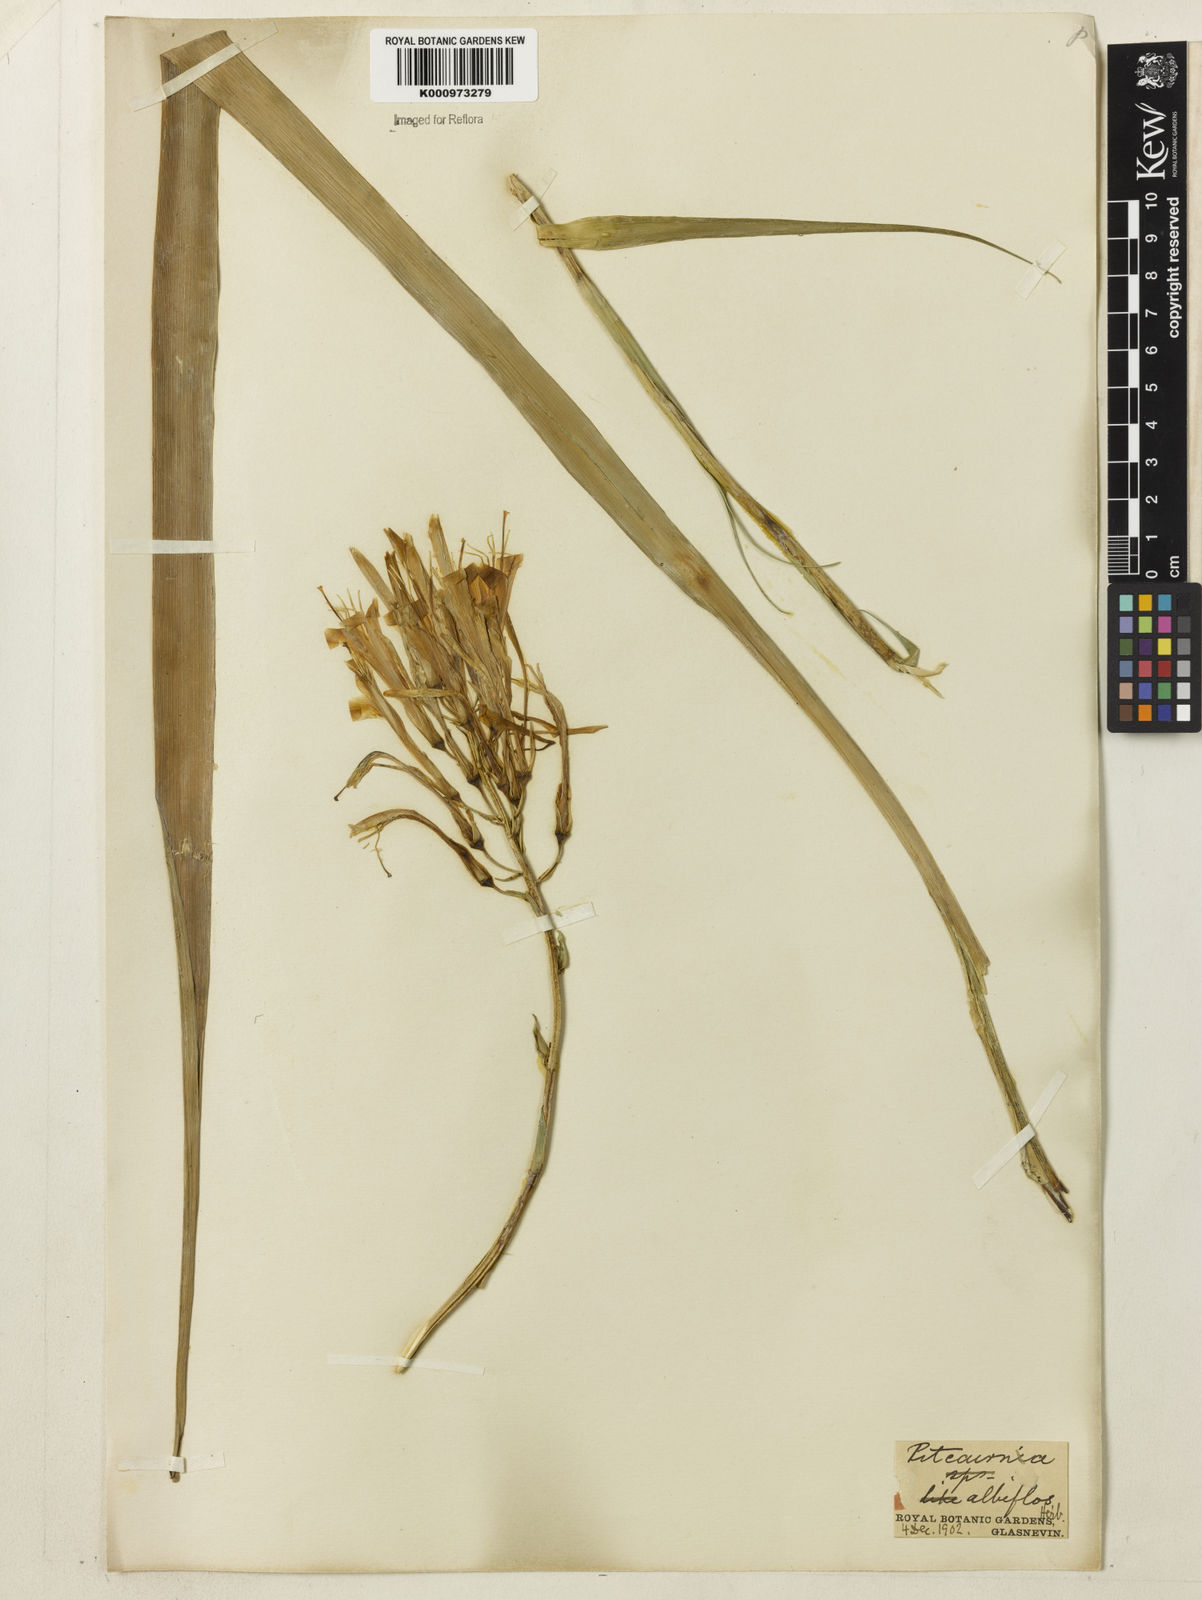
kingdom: Plantae
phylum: Tracheophyta
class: Liliopsida
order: Poales
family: Bromeliaceae
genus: Pitcairnia
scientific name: Pitcairnia albiflos
